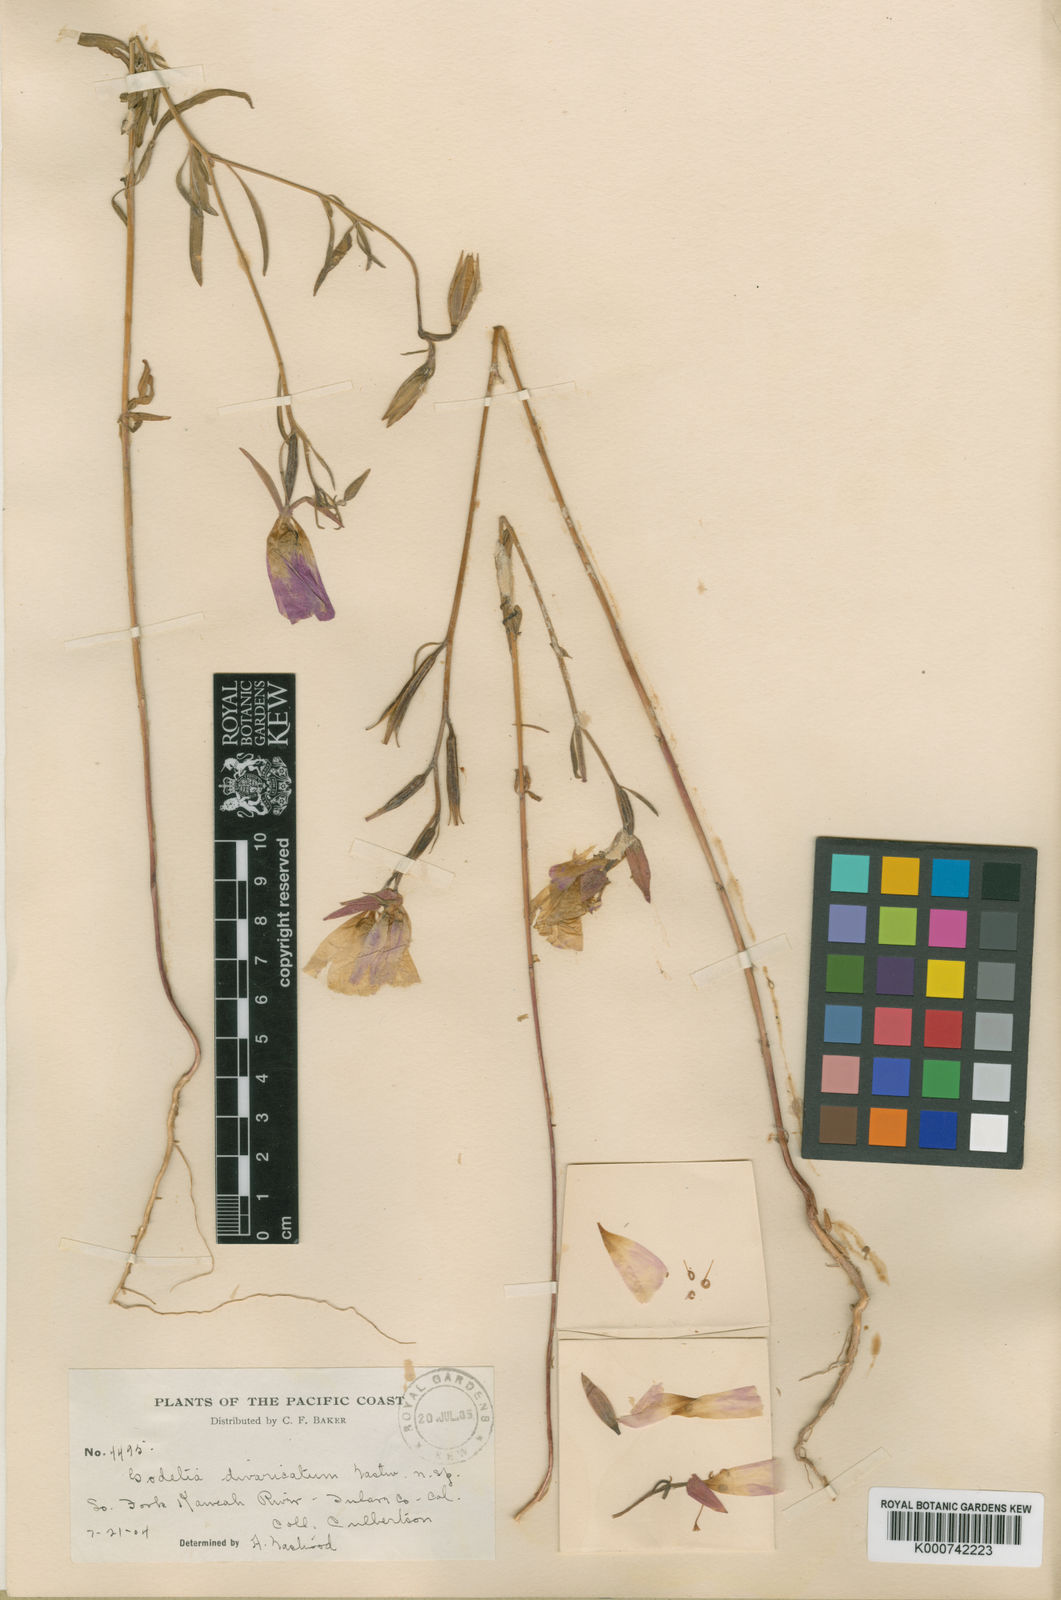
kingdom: Plantae
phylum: Tracheophyta
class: Magnoliopsida
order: Myrtales
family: Onagraceae
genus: Clarkia
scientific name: Clarkia
